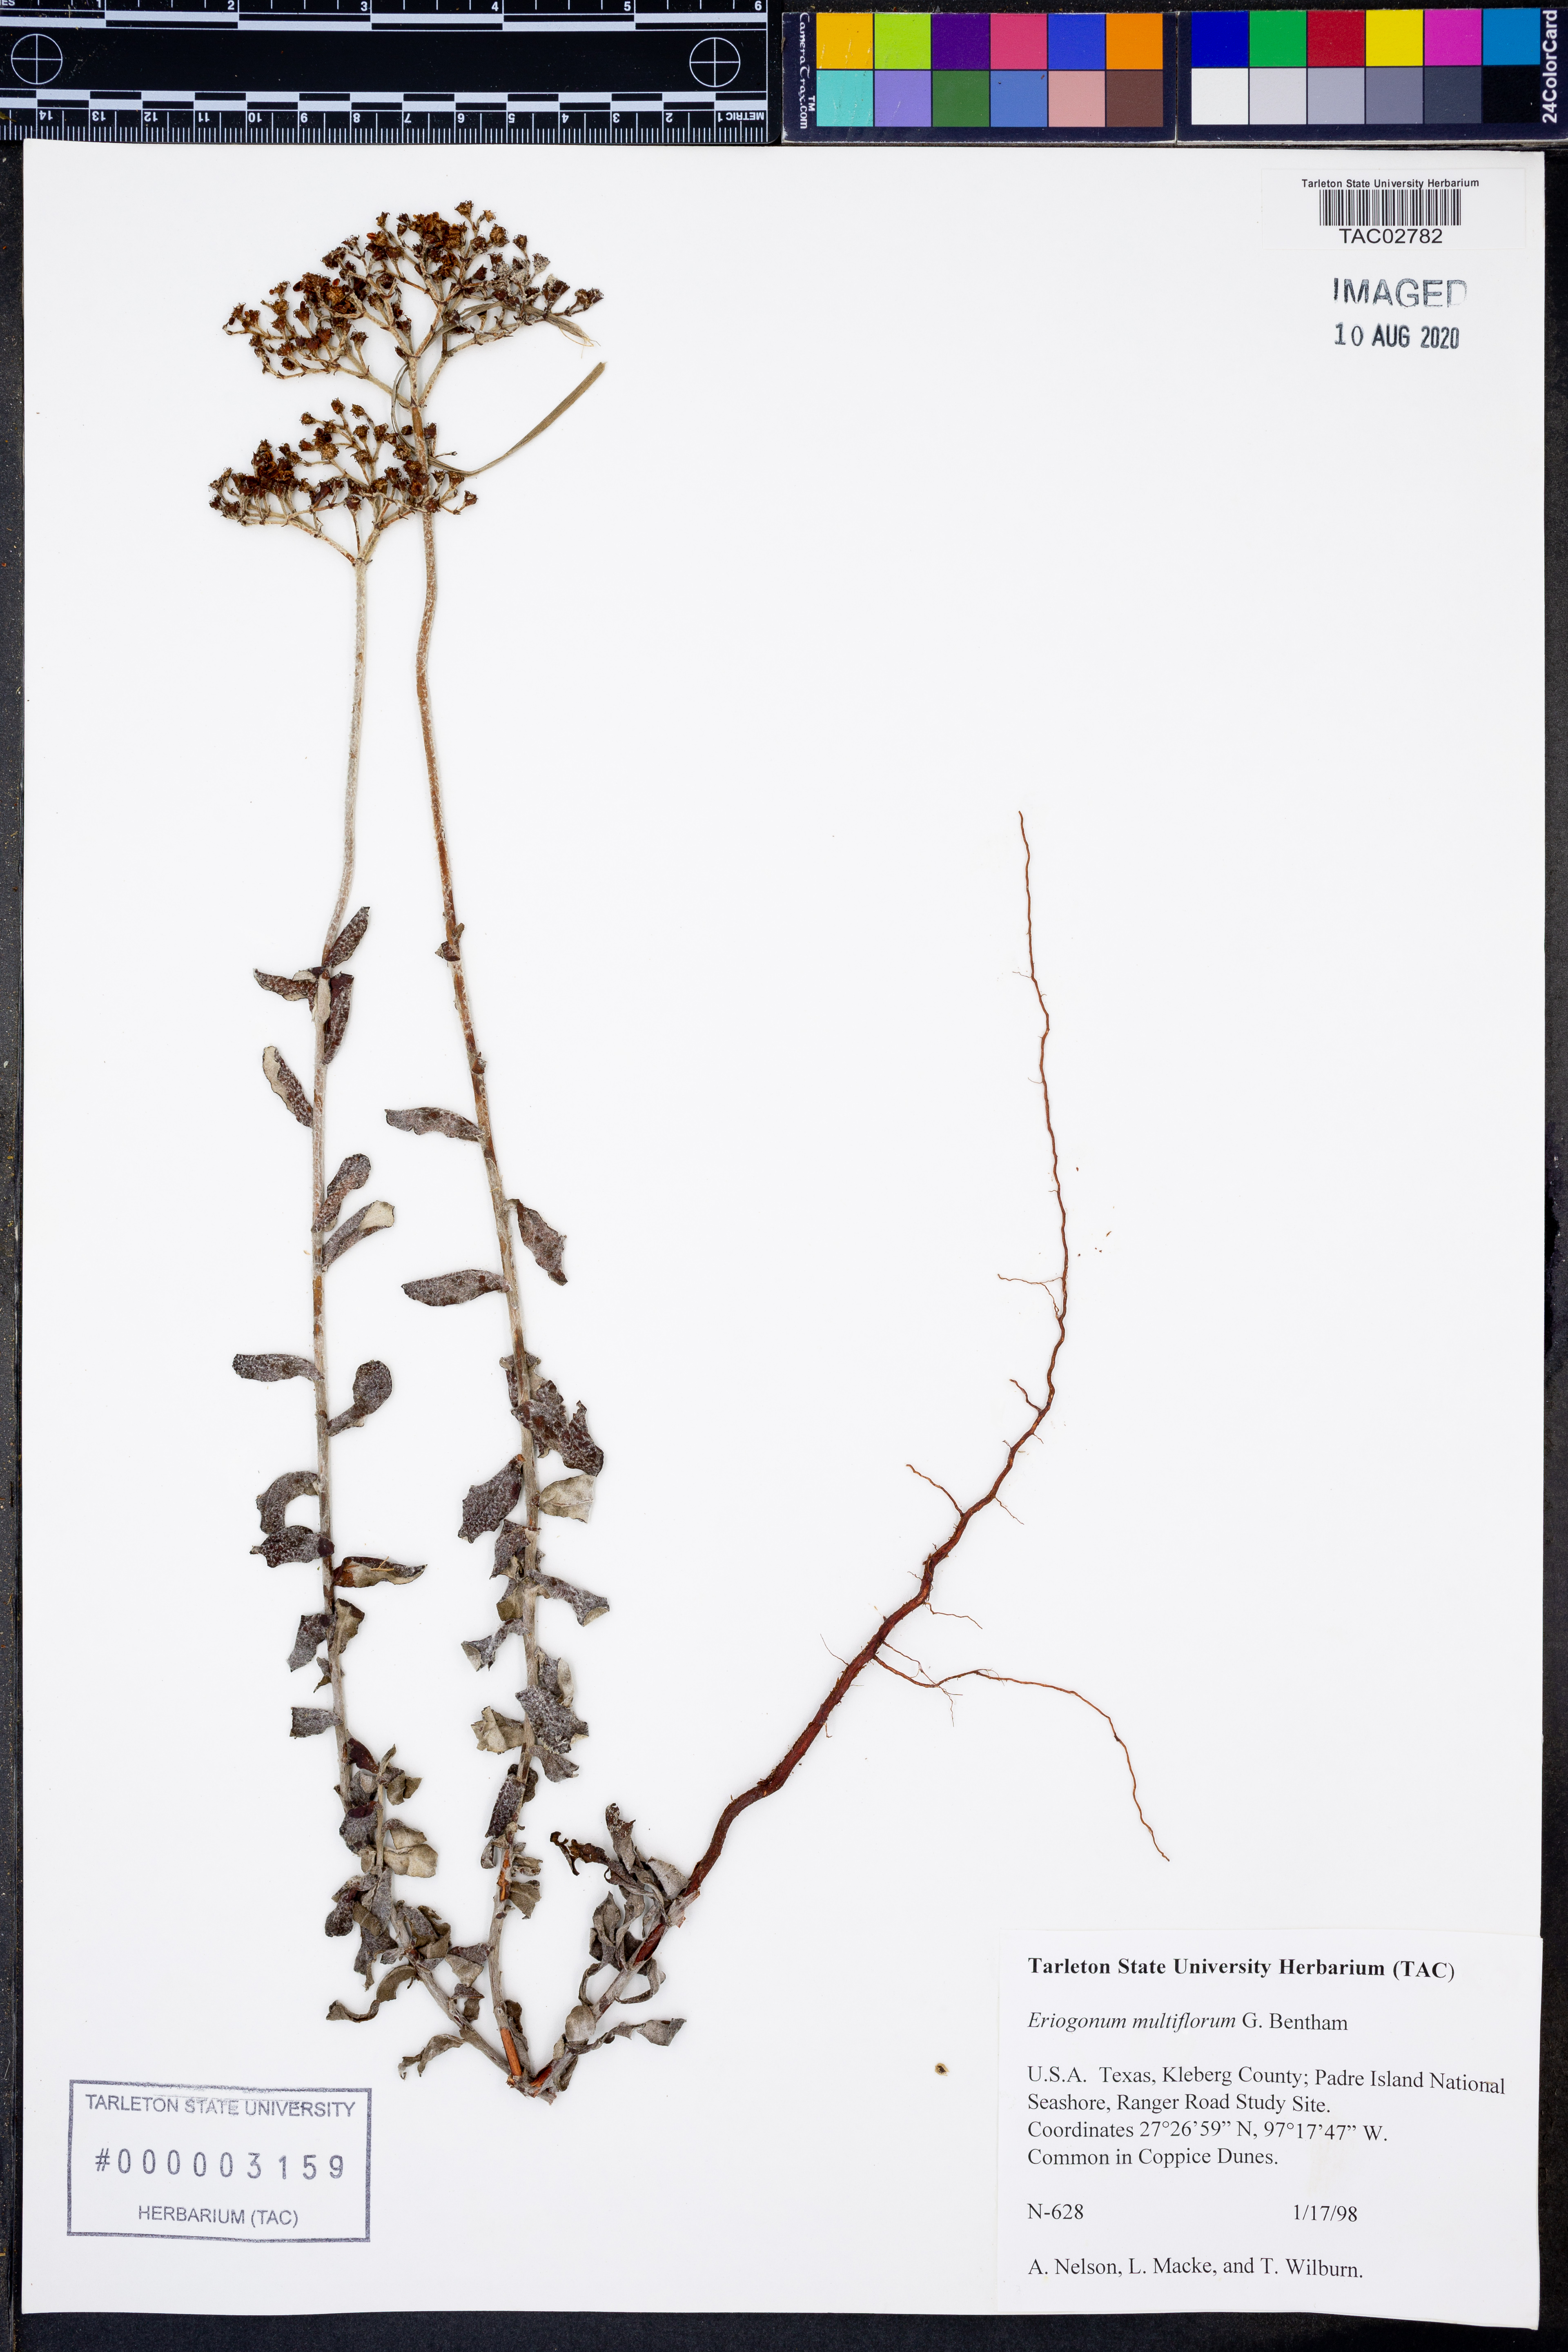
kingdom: Plantae
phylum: Tracheophyta
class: Magnoliopsida
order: Caryophyllales
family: Polygonaceae
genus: Eriogonum
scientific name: Eriogonum multiflorum
